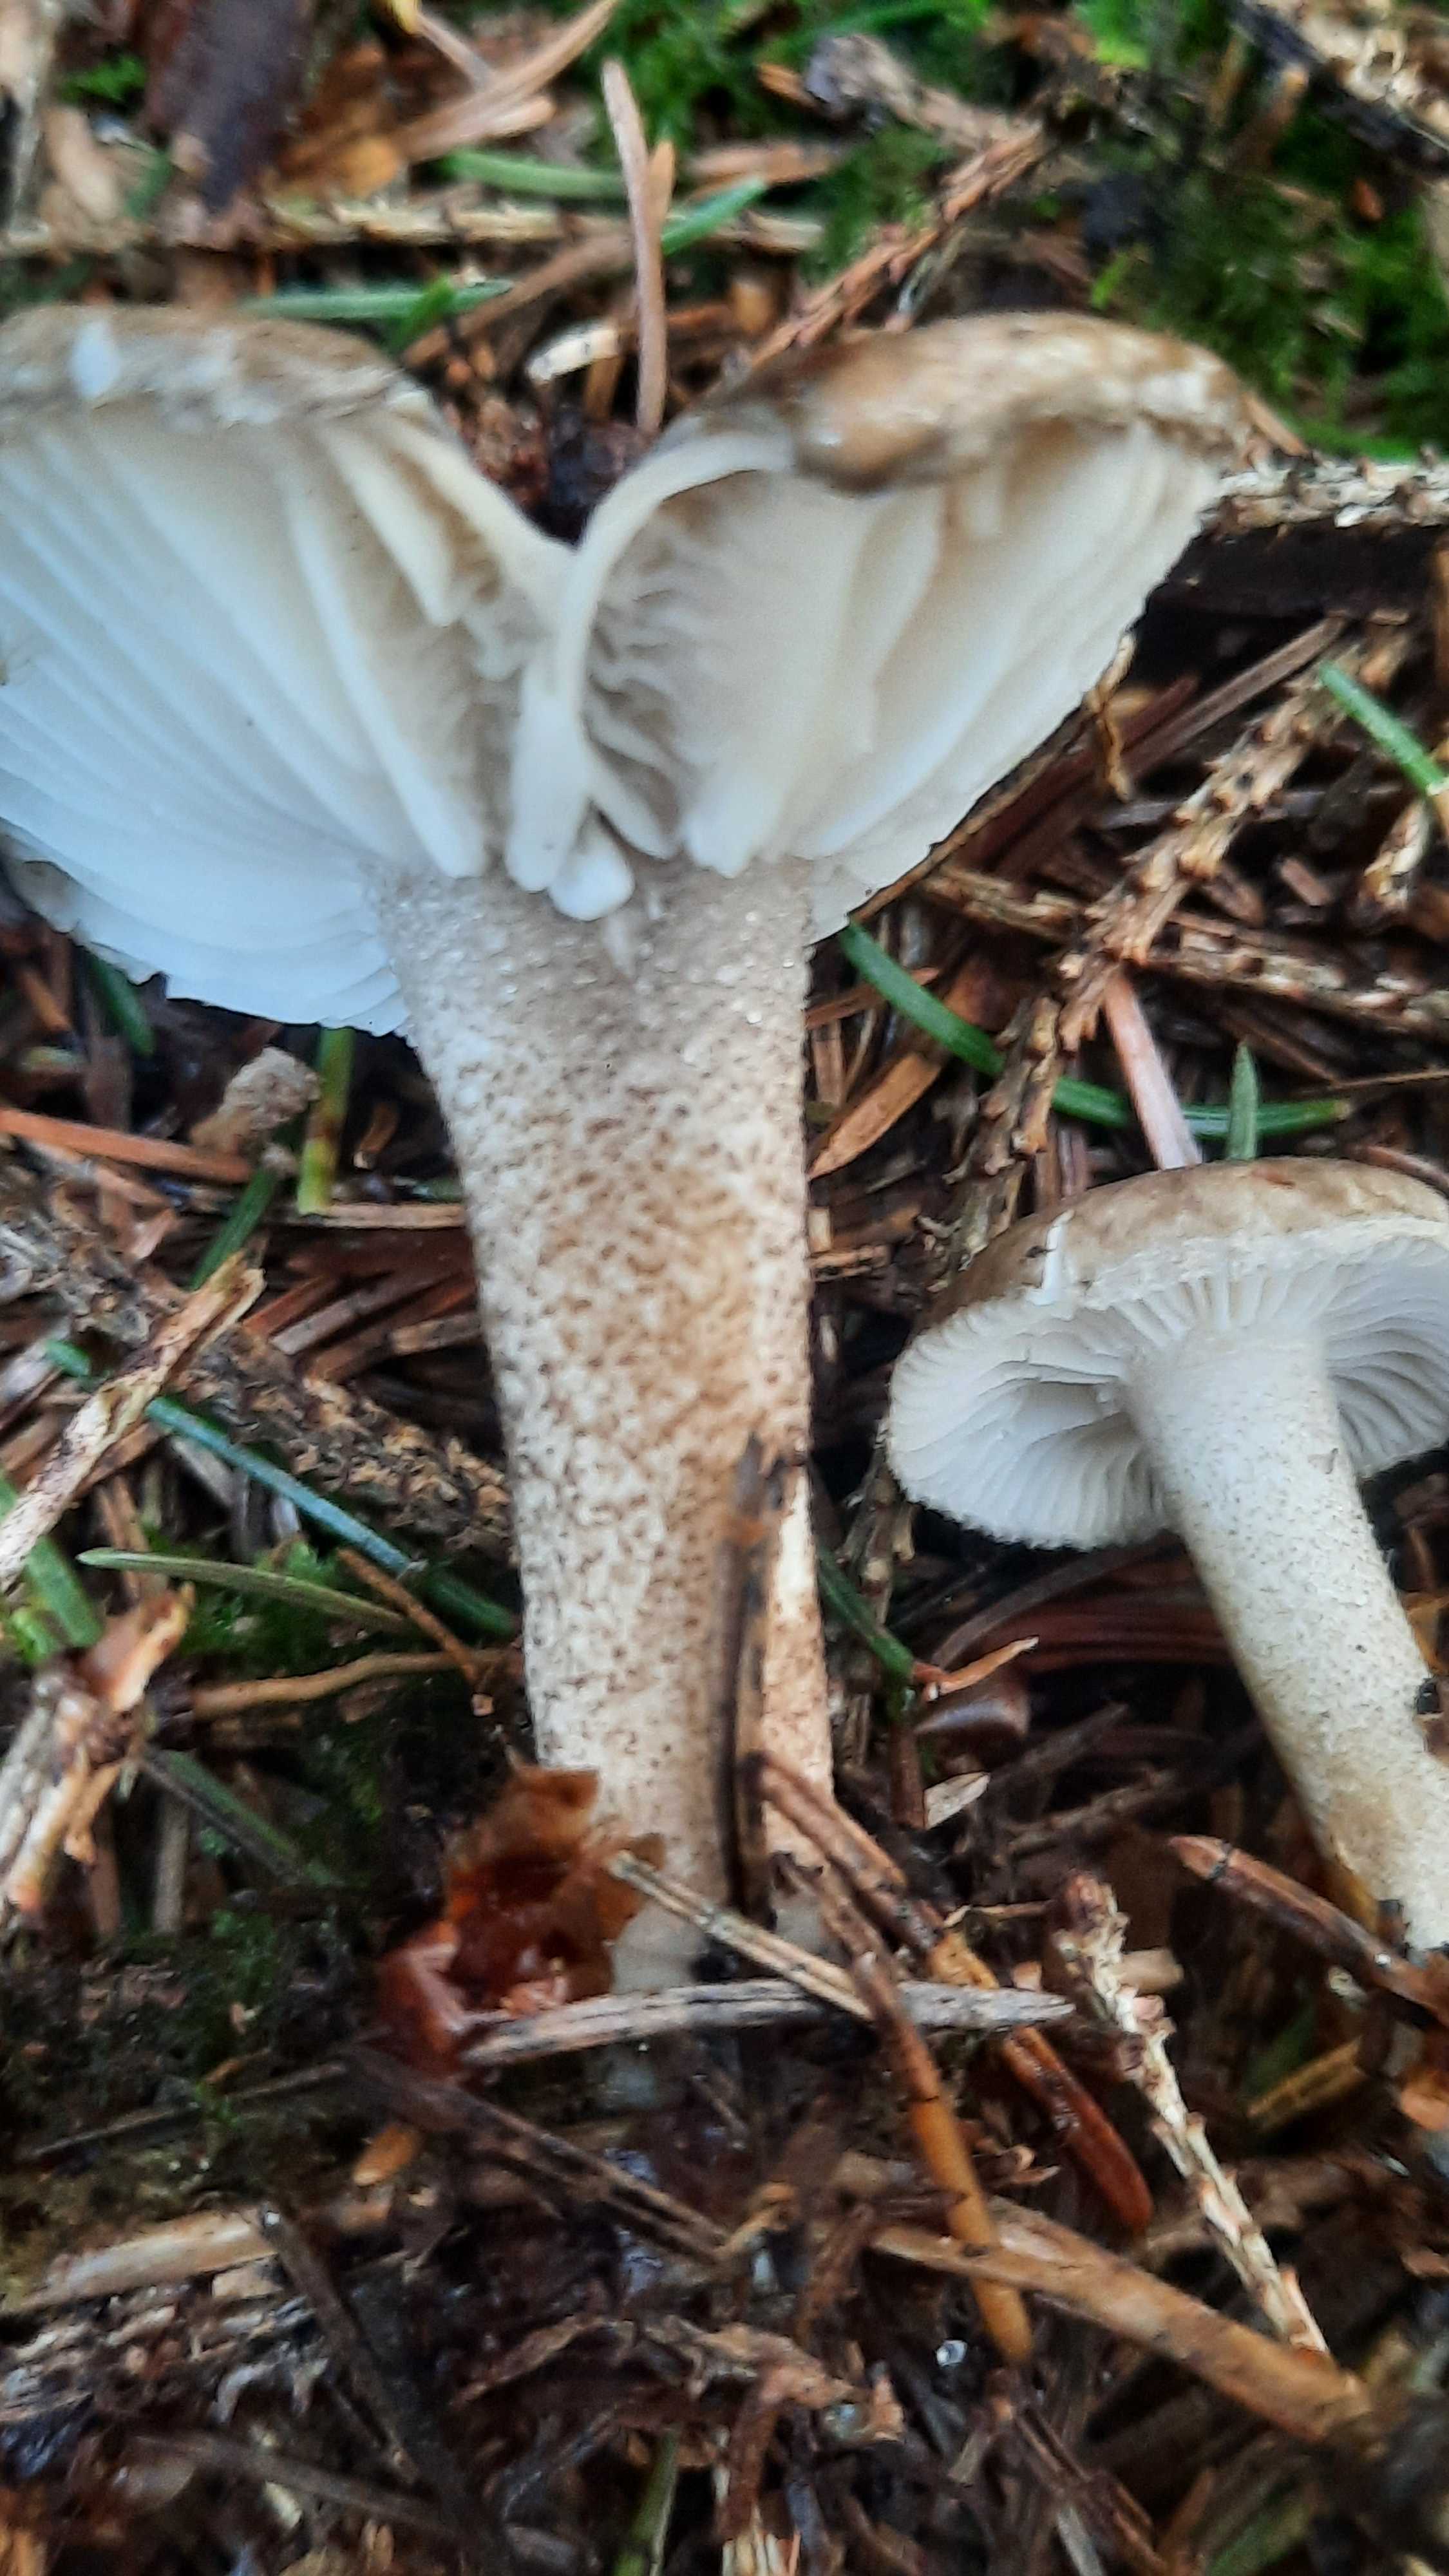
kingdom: Fungi
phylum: Basidiomycota
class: Agaricomycetes
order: Agaricales
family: Hygrophoraceae
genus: Hygrophorus
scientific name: Hygrophorus pustulatus
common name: mørkprikket sneglehat
